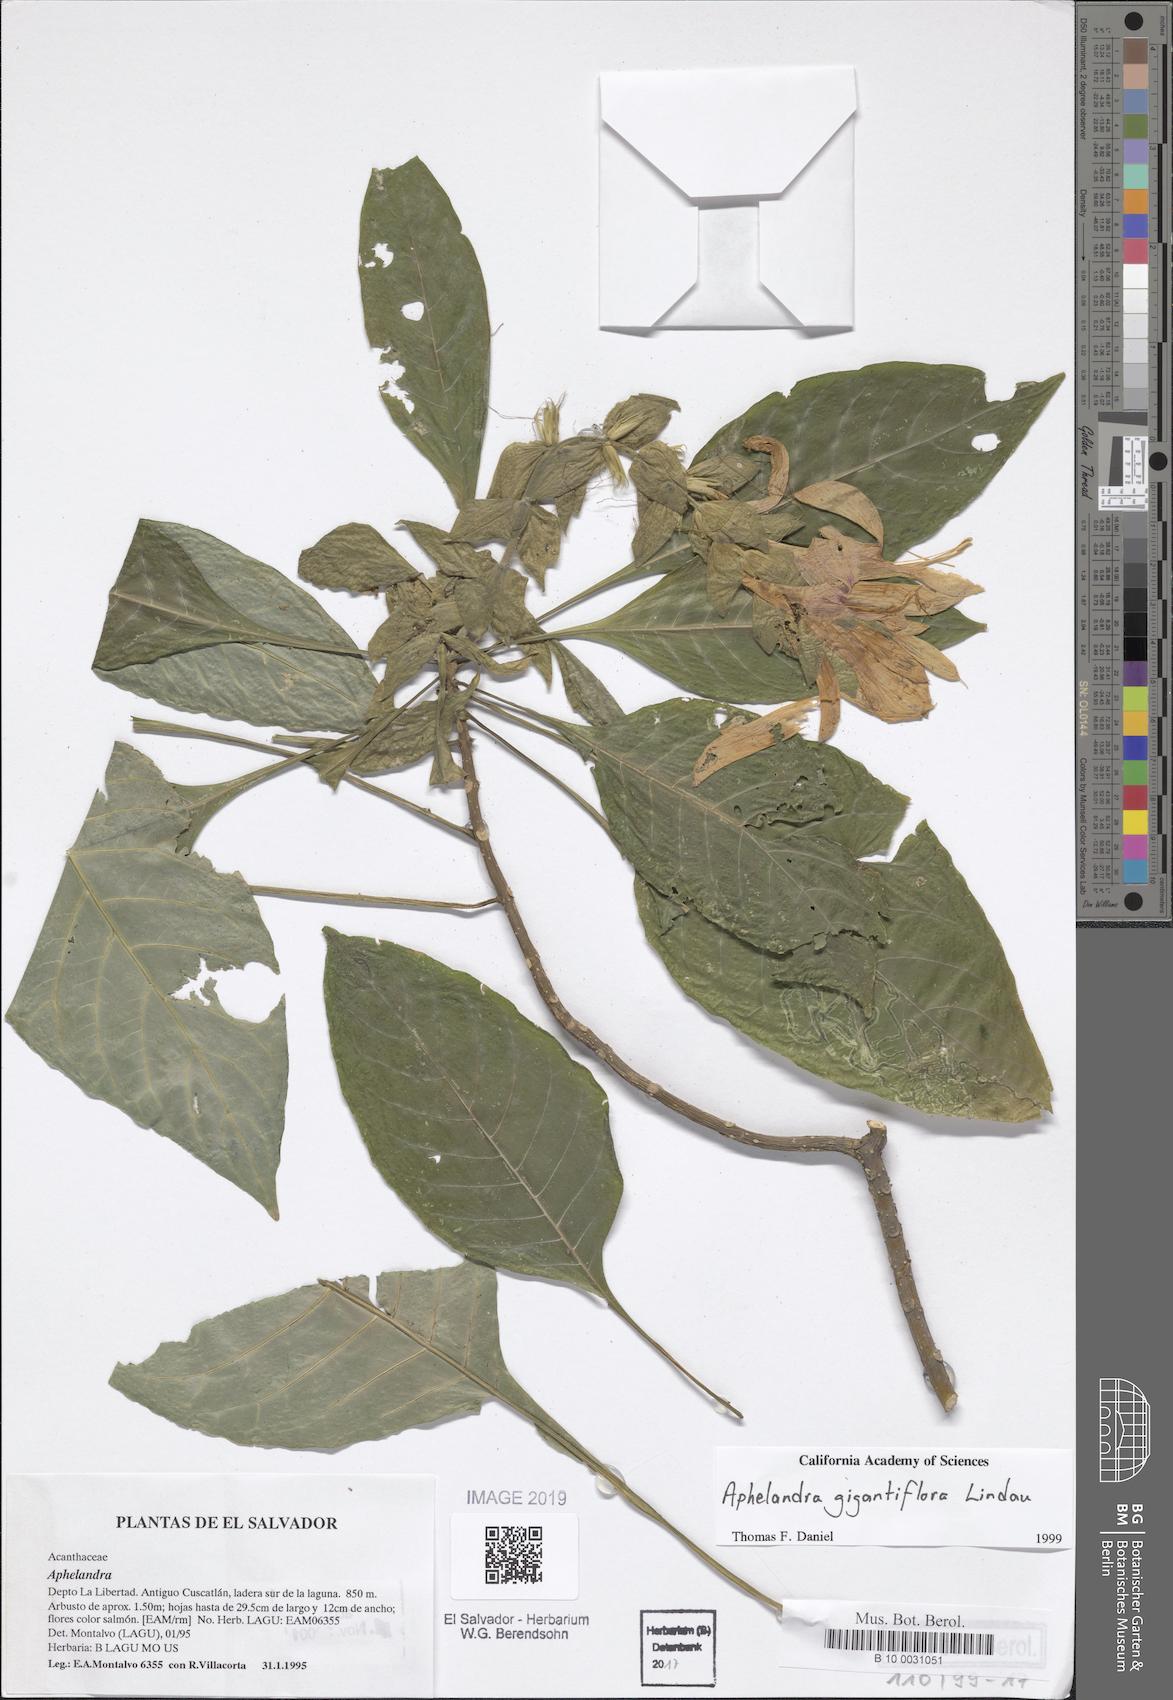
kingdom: Plantae
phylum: Tracheophyta
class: Magnoliopsida
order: Lamiales
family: Acanthaceae
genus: Aphelandra
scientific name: Aphelandra gigantiflora
